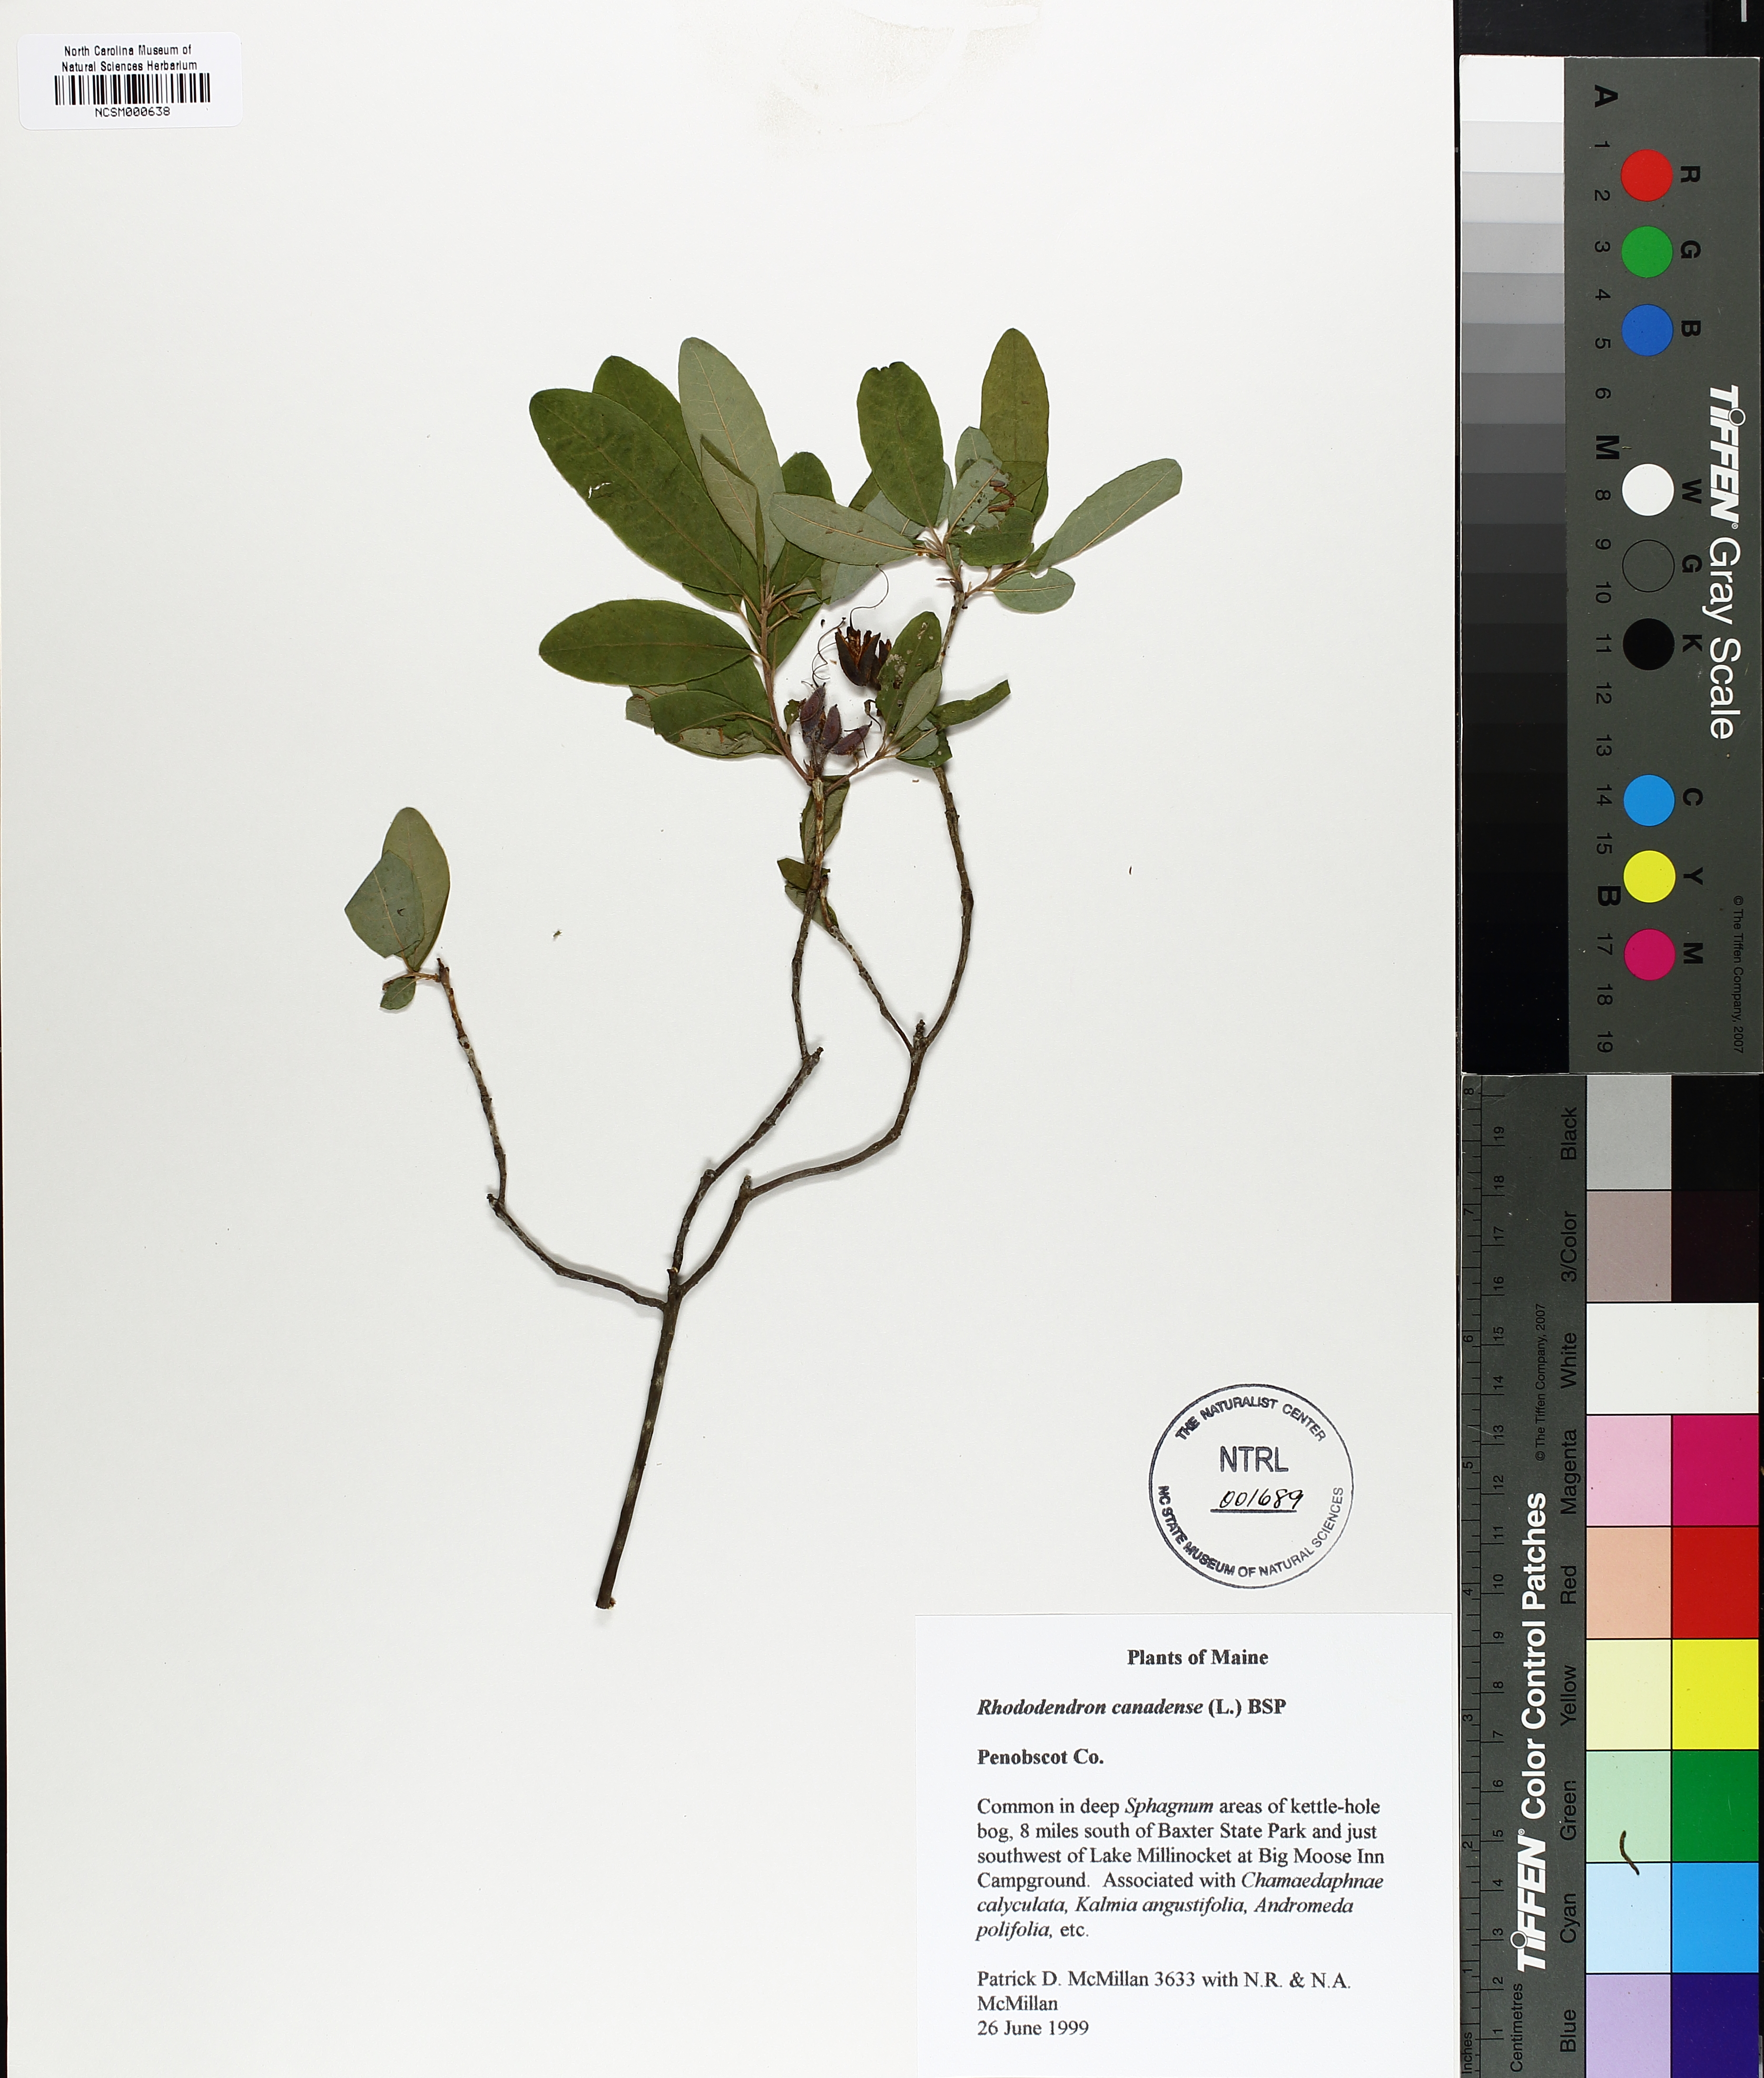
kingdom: Plantae
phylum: Tracheophyta
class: Magnoliopsida
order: Ericales
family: Ericaceae
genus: Rhododendron
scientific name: Rhododendron canadense
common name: Rhodora
